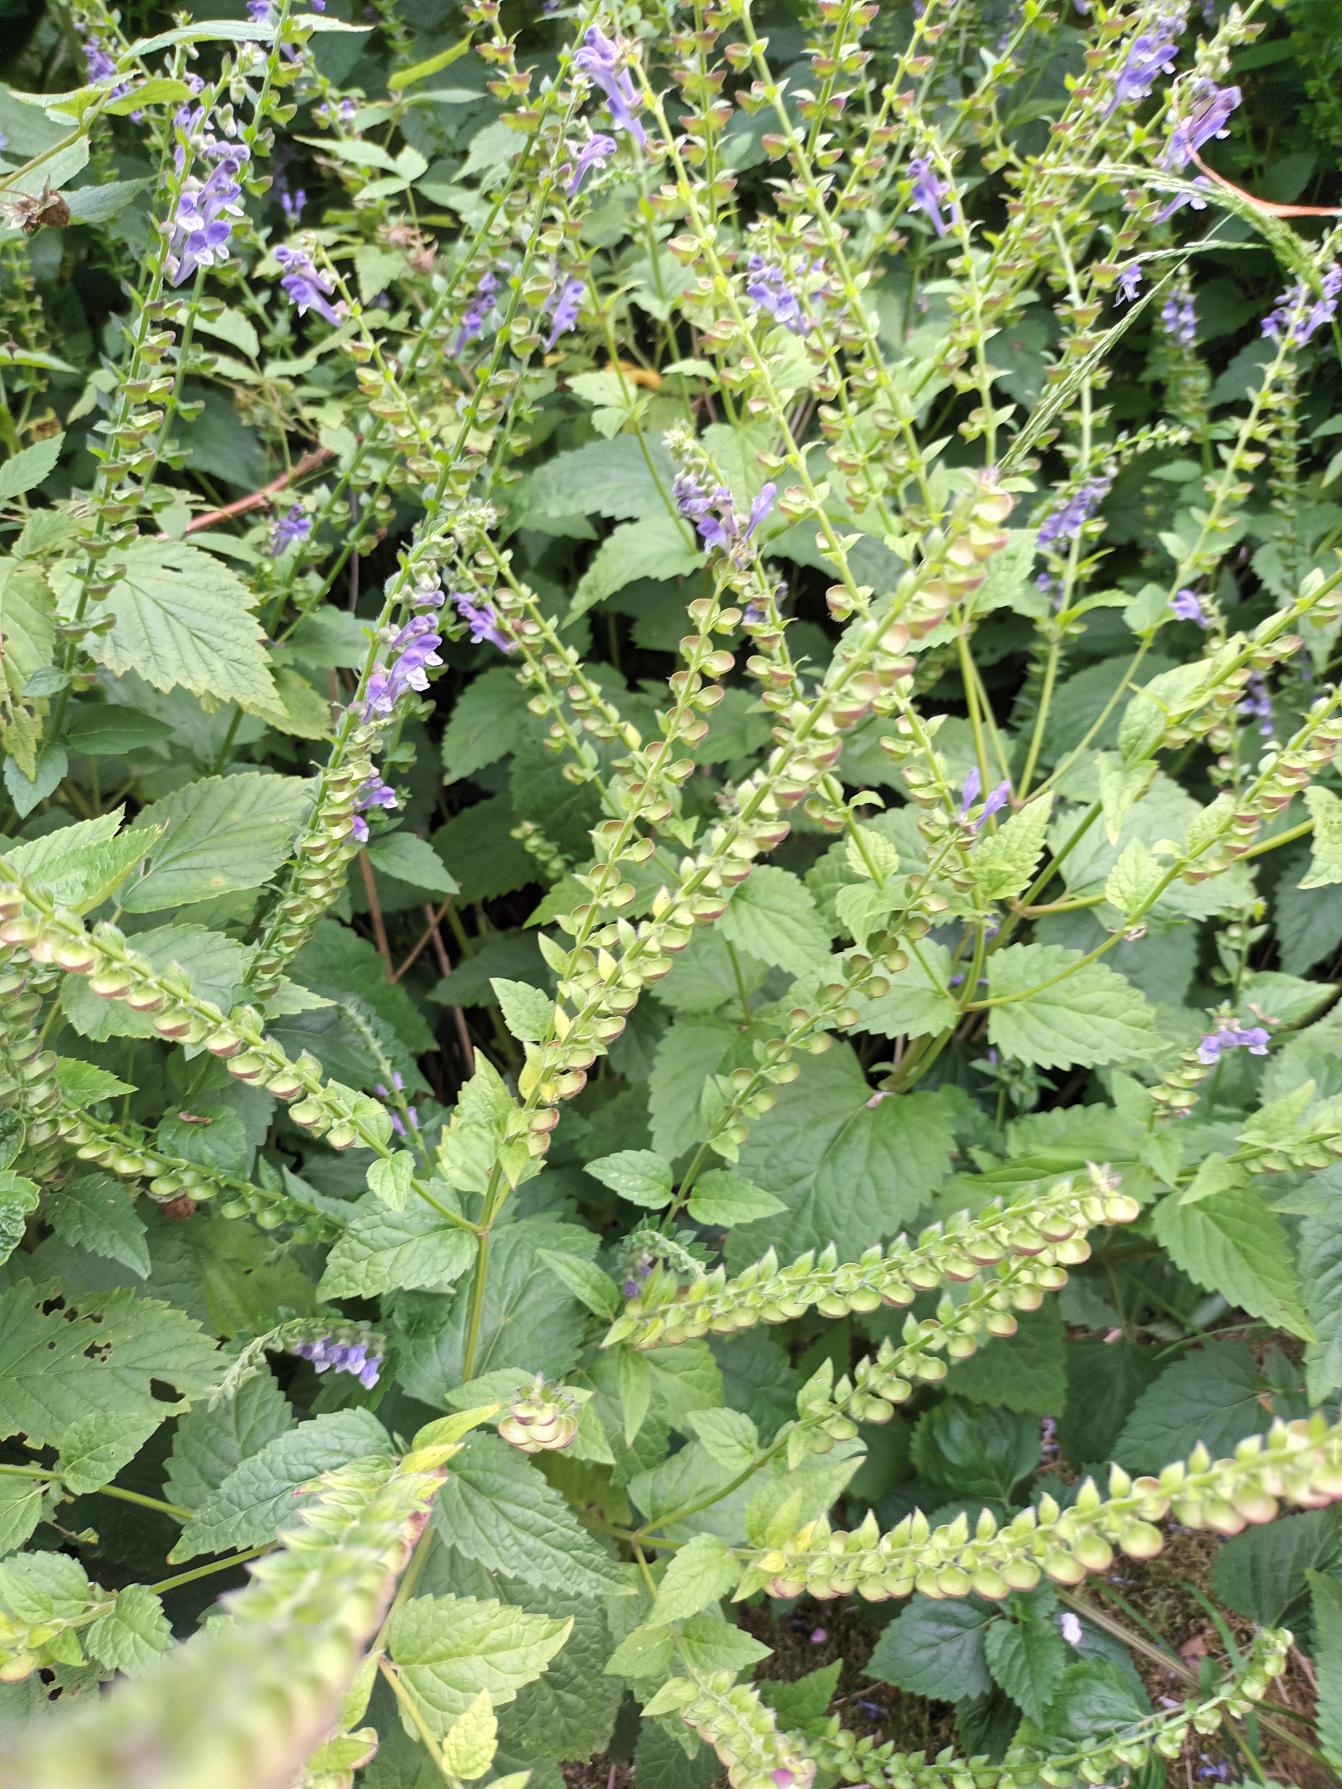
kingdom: Plantae
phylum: Tracheophyta
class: Magnoliopsida
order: Lamiales
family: Lamiaceae
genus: Scutellaria
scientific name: Scutellaria altissima
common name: Høj skjolddrager
